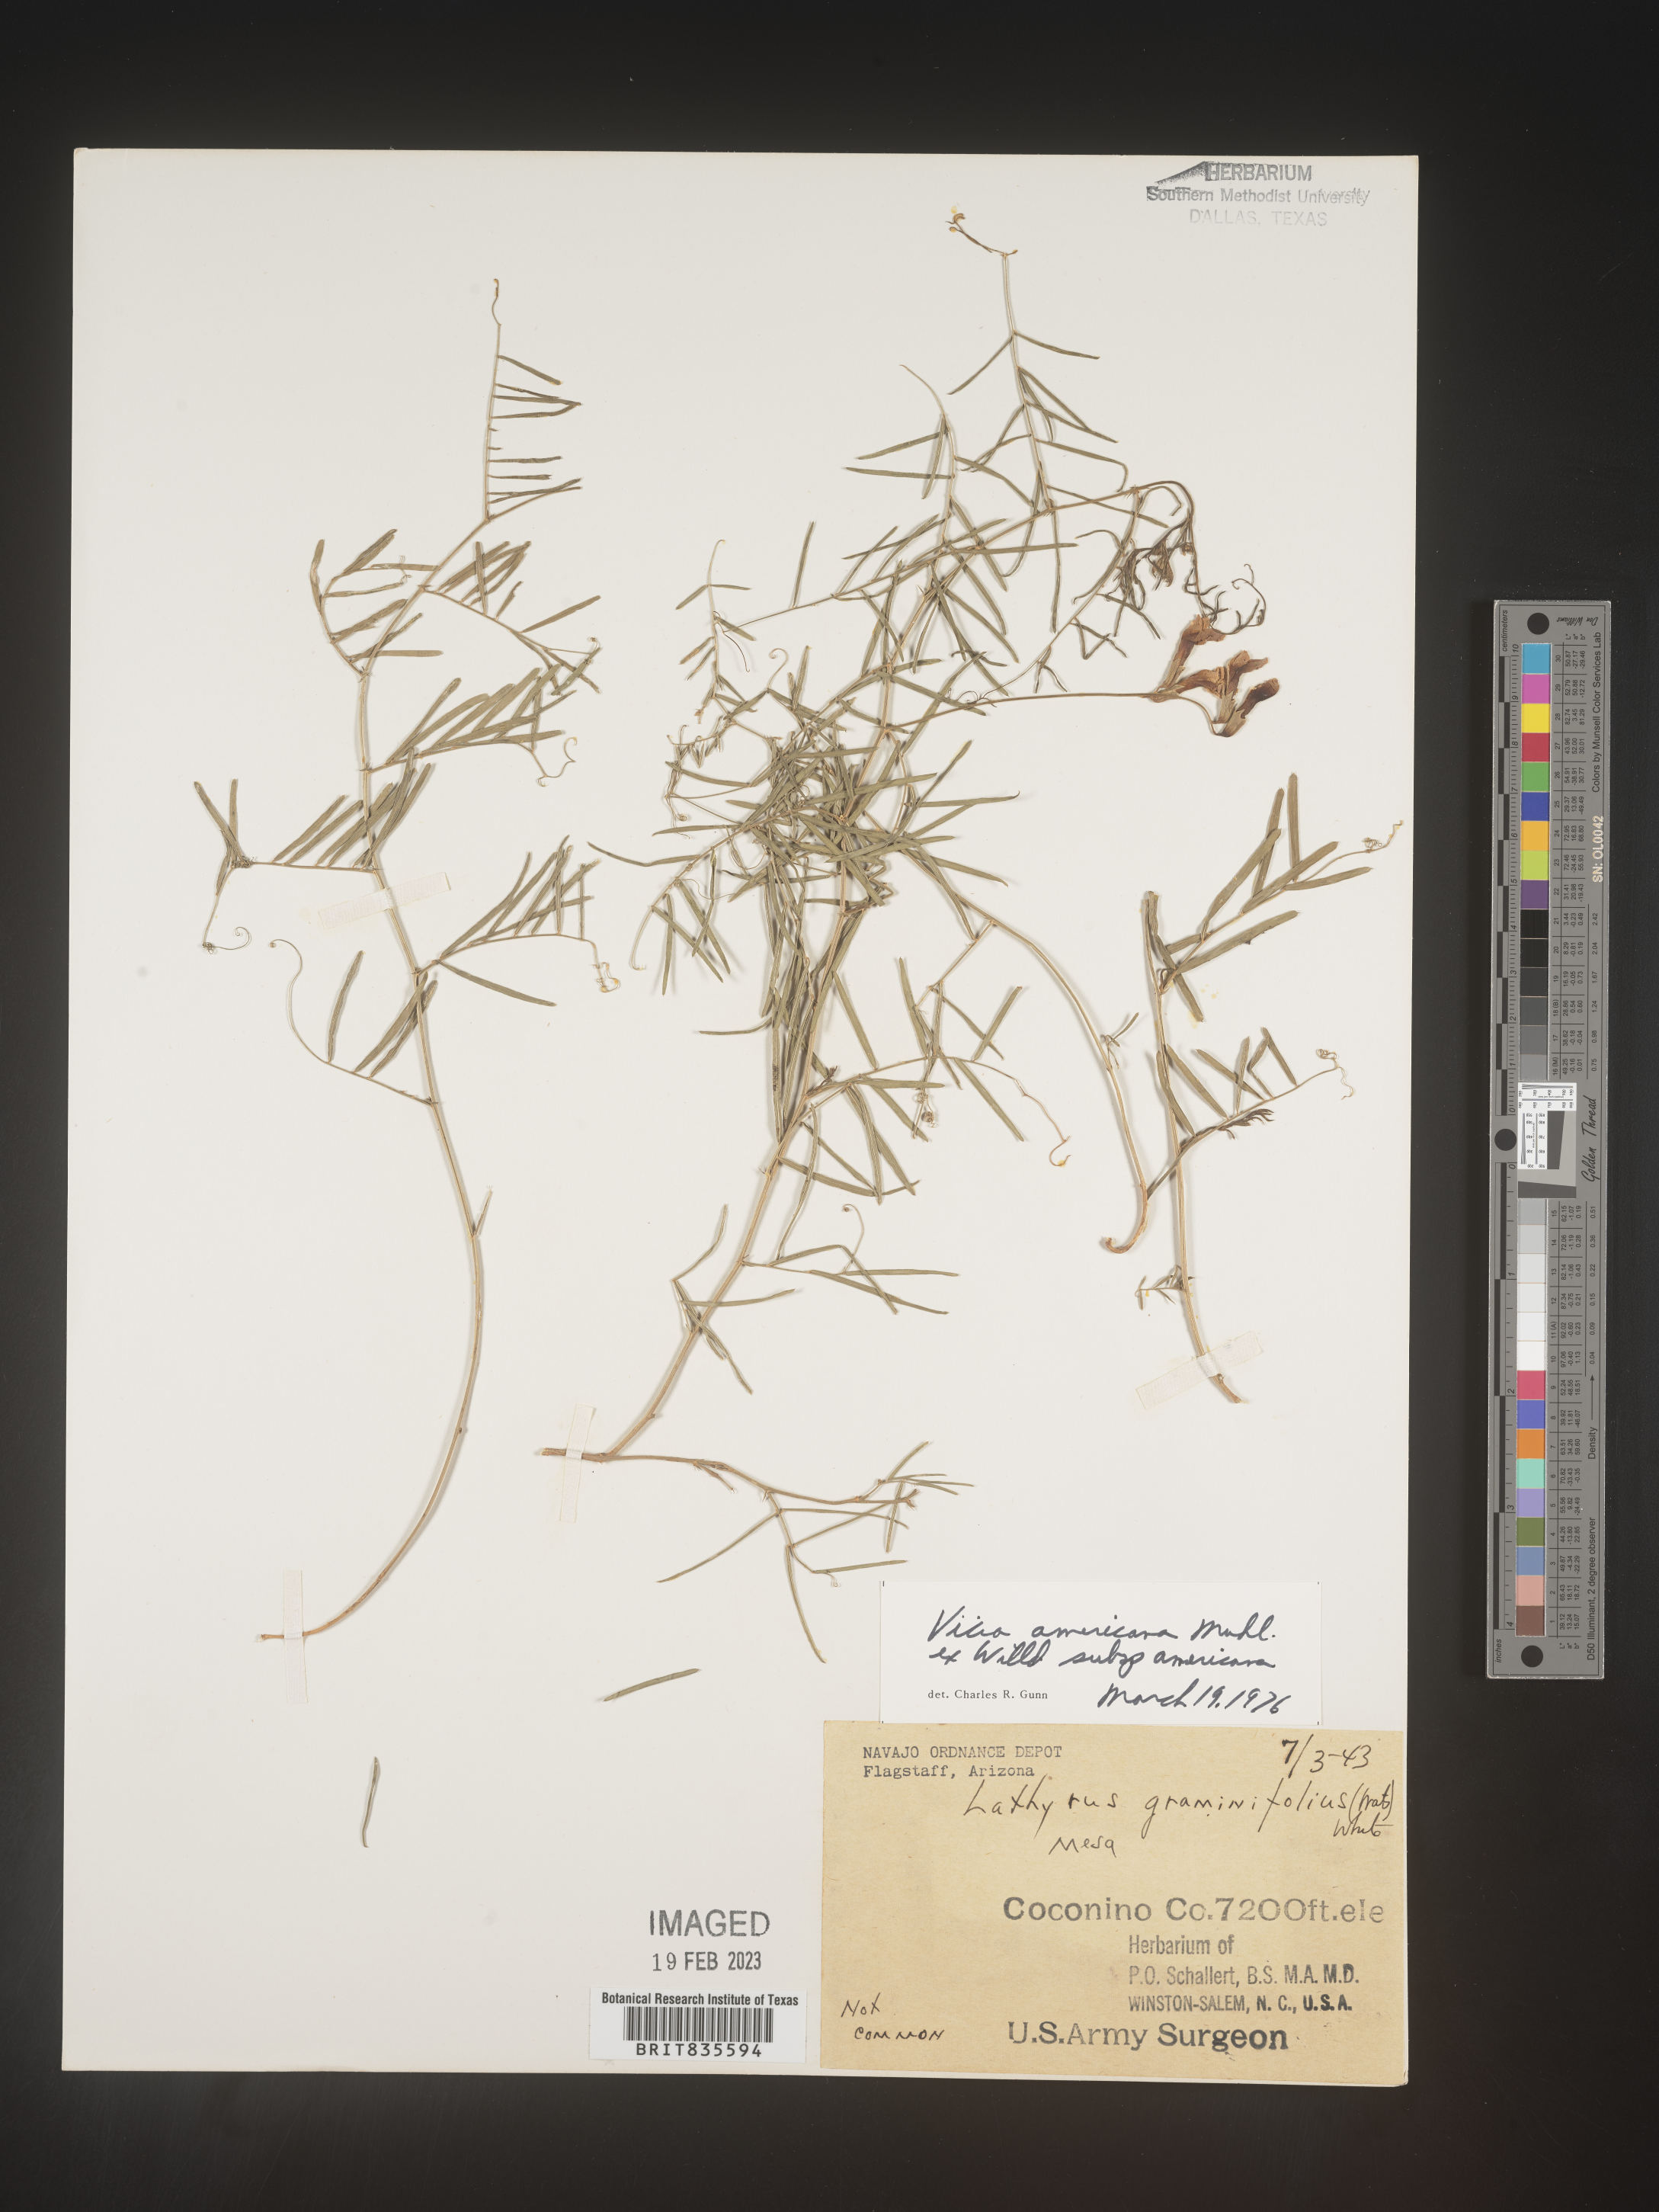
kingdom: Plantae
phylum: Tracheophyta
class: Magnoliopsida
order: Fabales
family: Fabaceae
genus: Vicia
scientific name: Vicia americana
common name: American vetch
